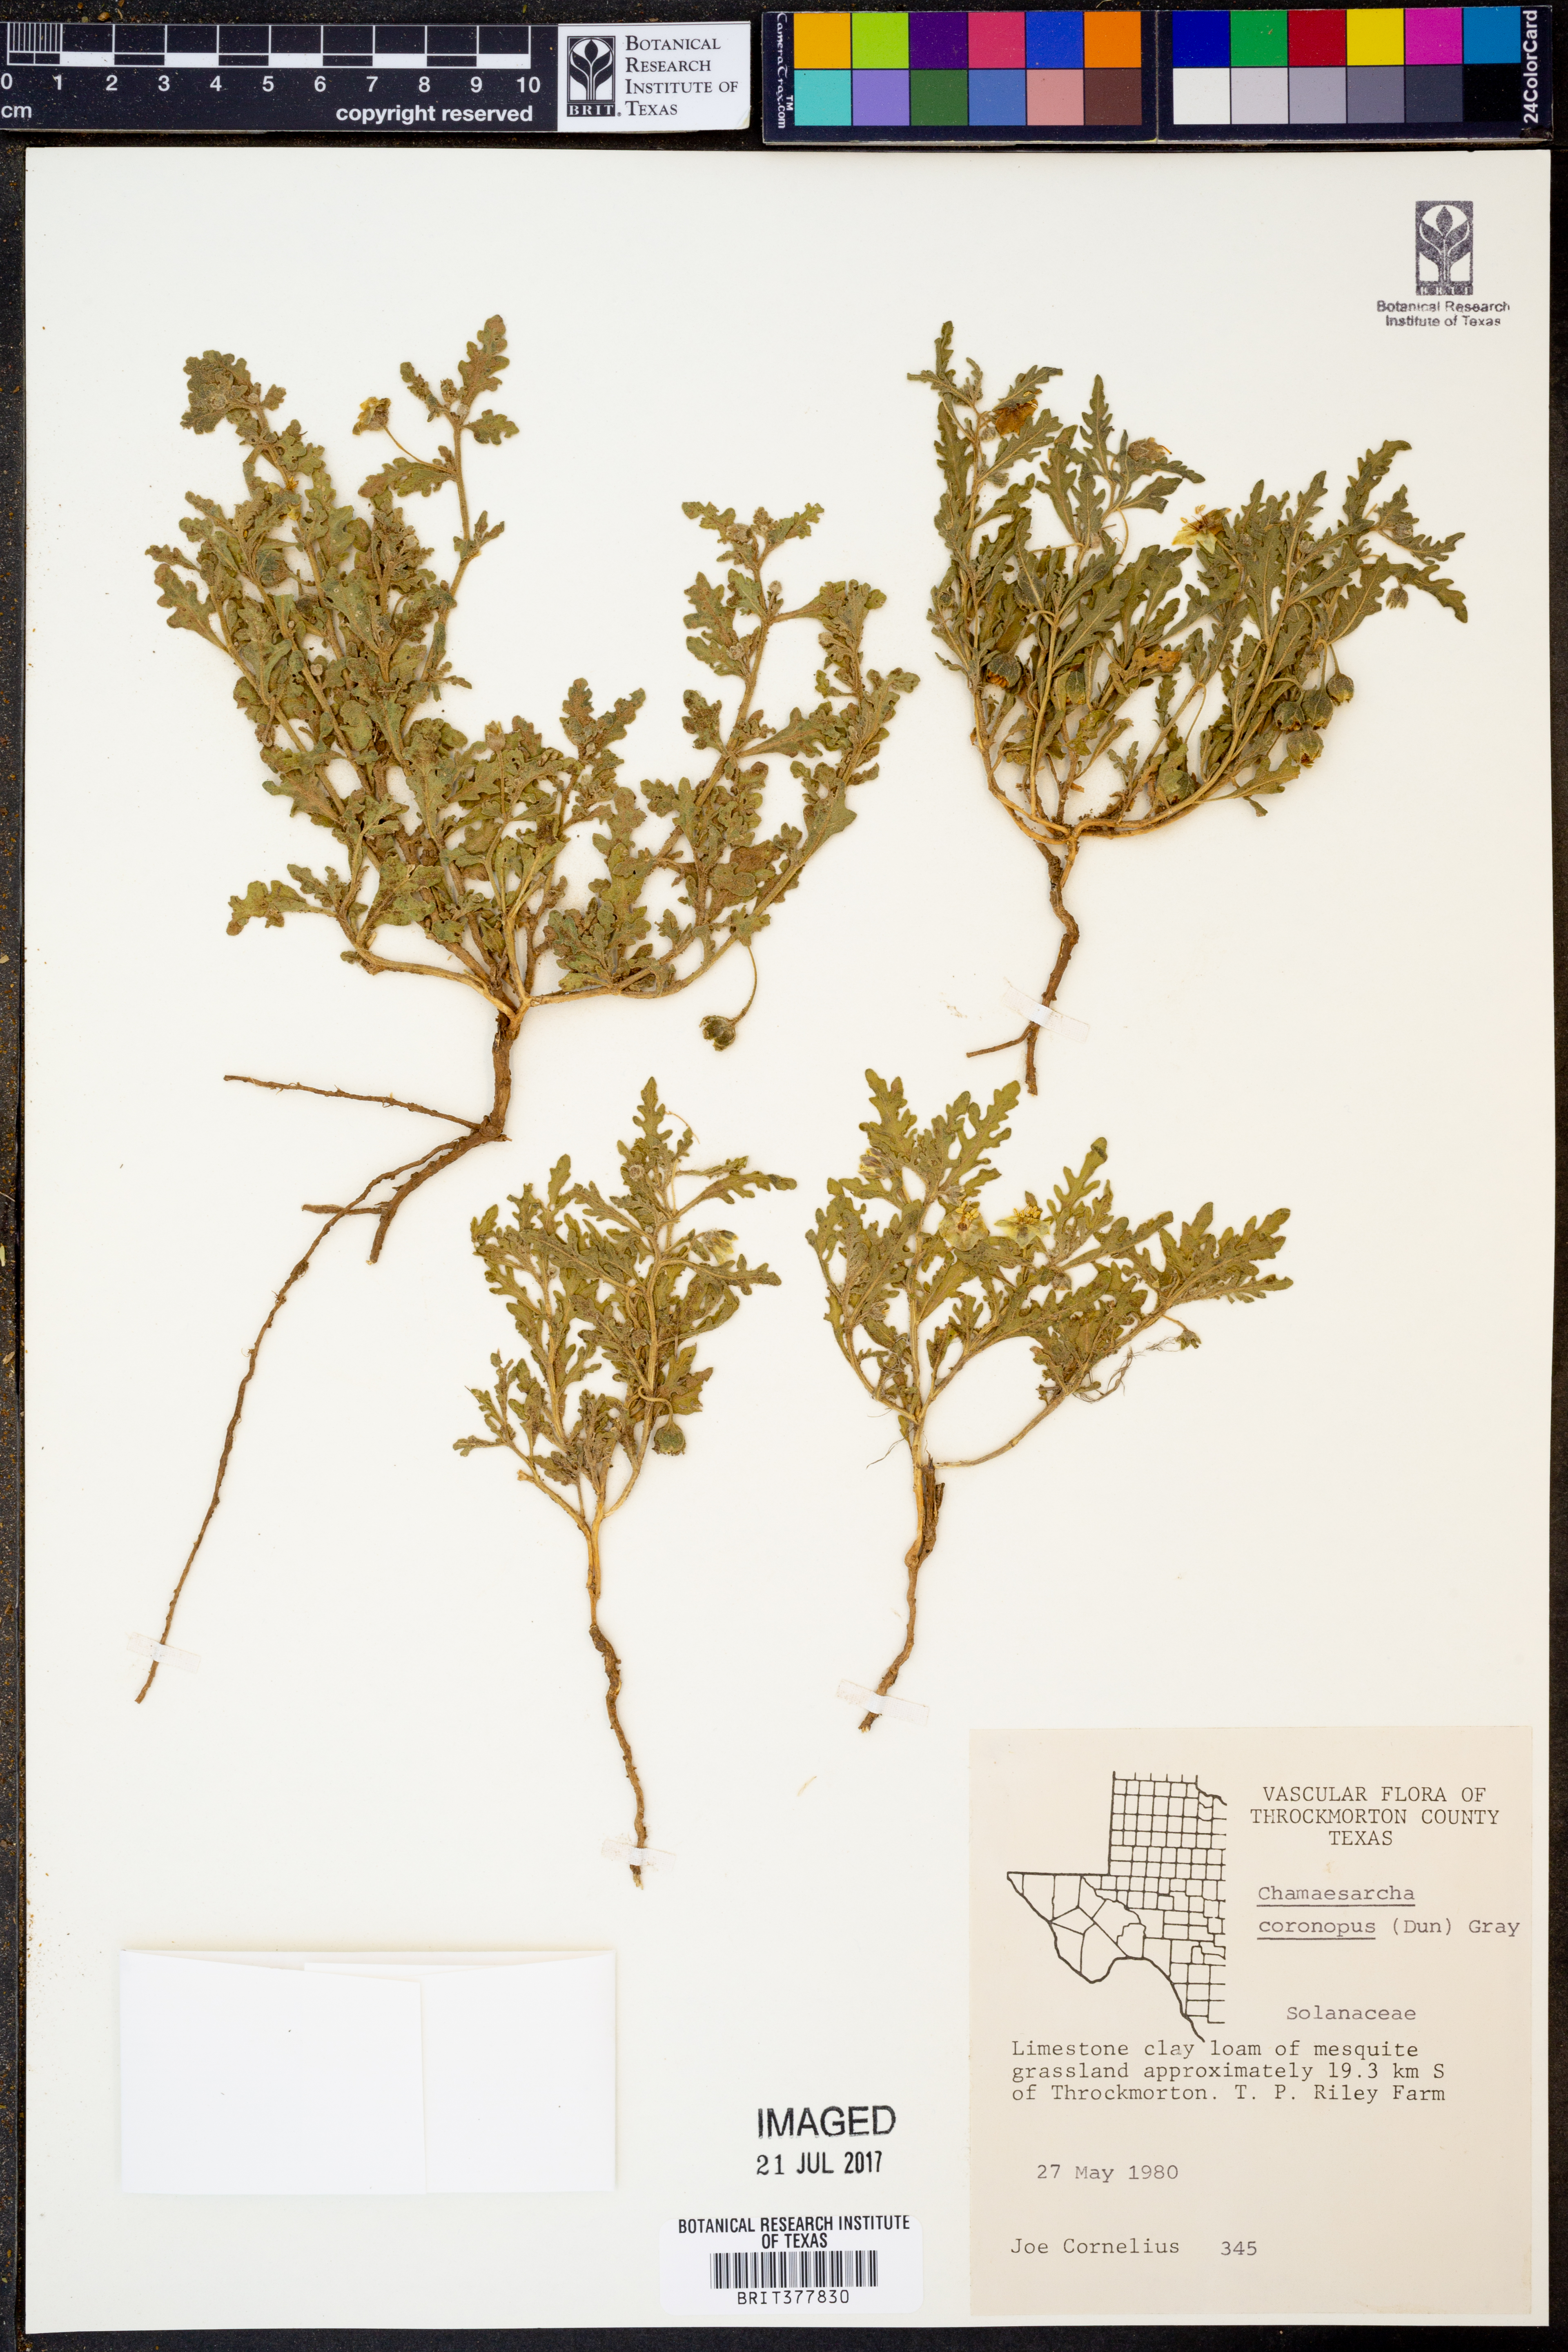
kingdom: Plantae
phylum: Tracheophyta
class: Magnoliopsida
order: Solanales
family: Solanaceae
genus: Chamaesaracha
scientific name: Chamaesaracha coronopus
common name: Smooth chamaesaracha
